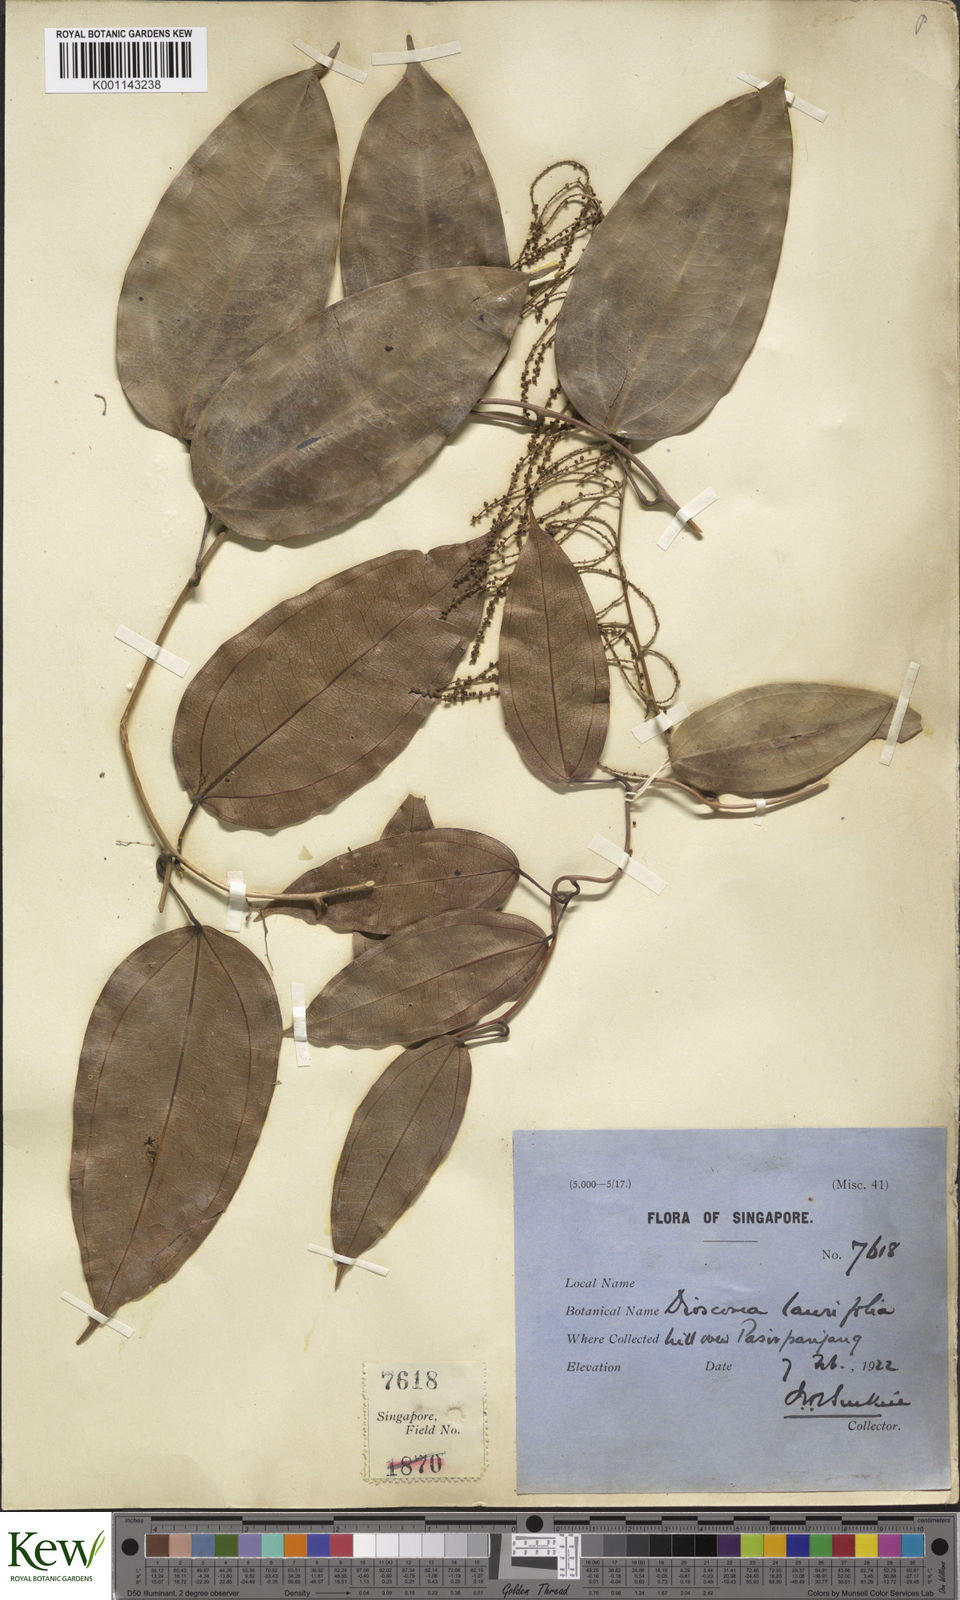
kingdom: Plantae
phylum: Tracheophyta
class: Liliopsida
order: Dioscoreales
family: Dioscoreaceae
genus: Dioscorea
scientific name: Dioscorea laurifolia
